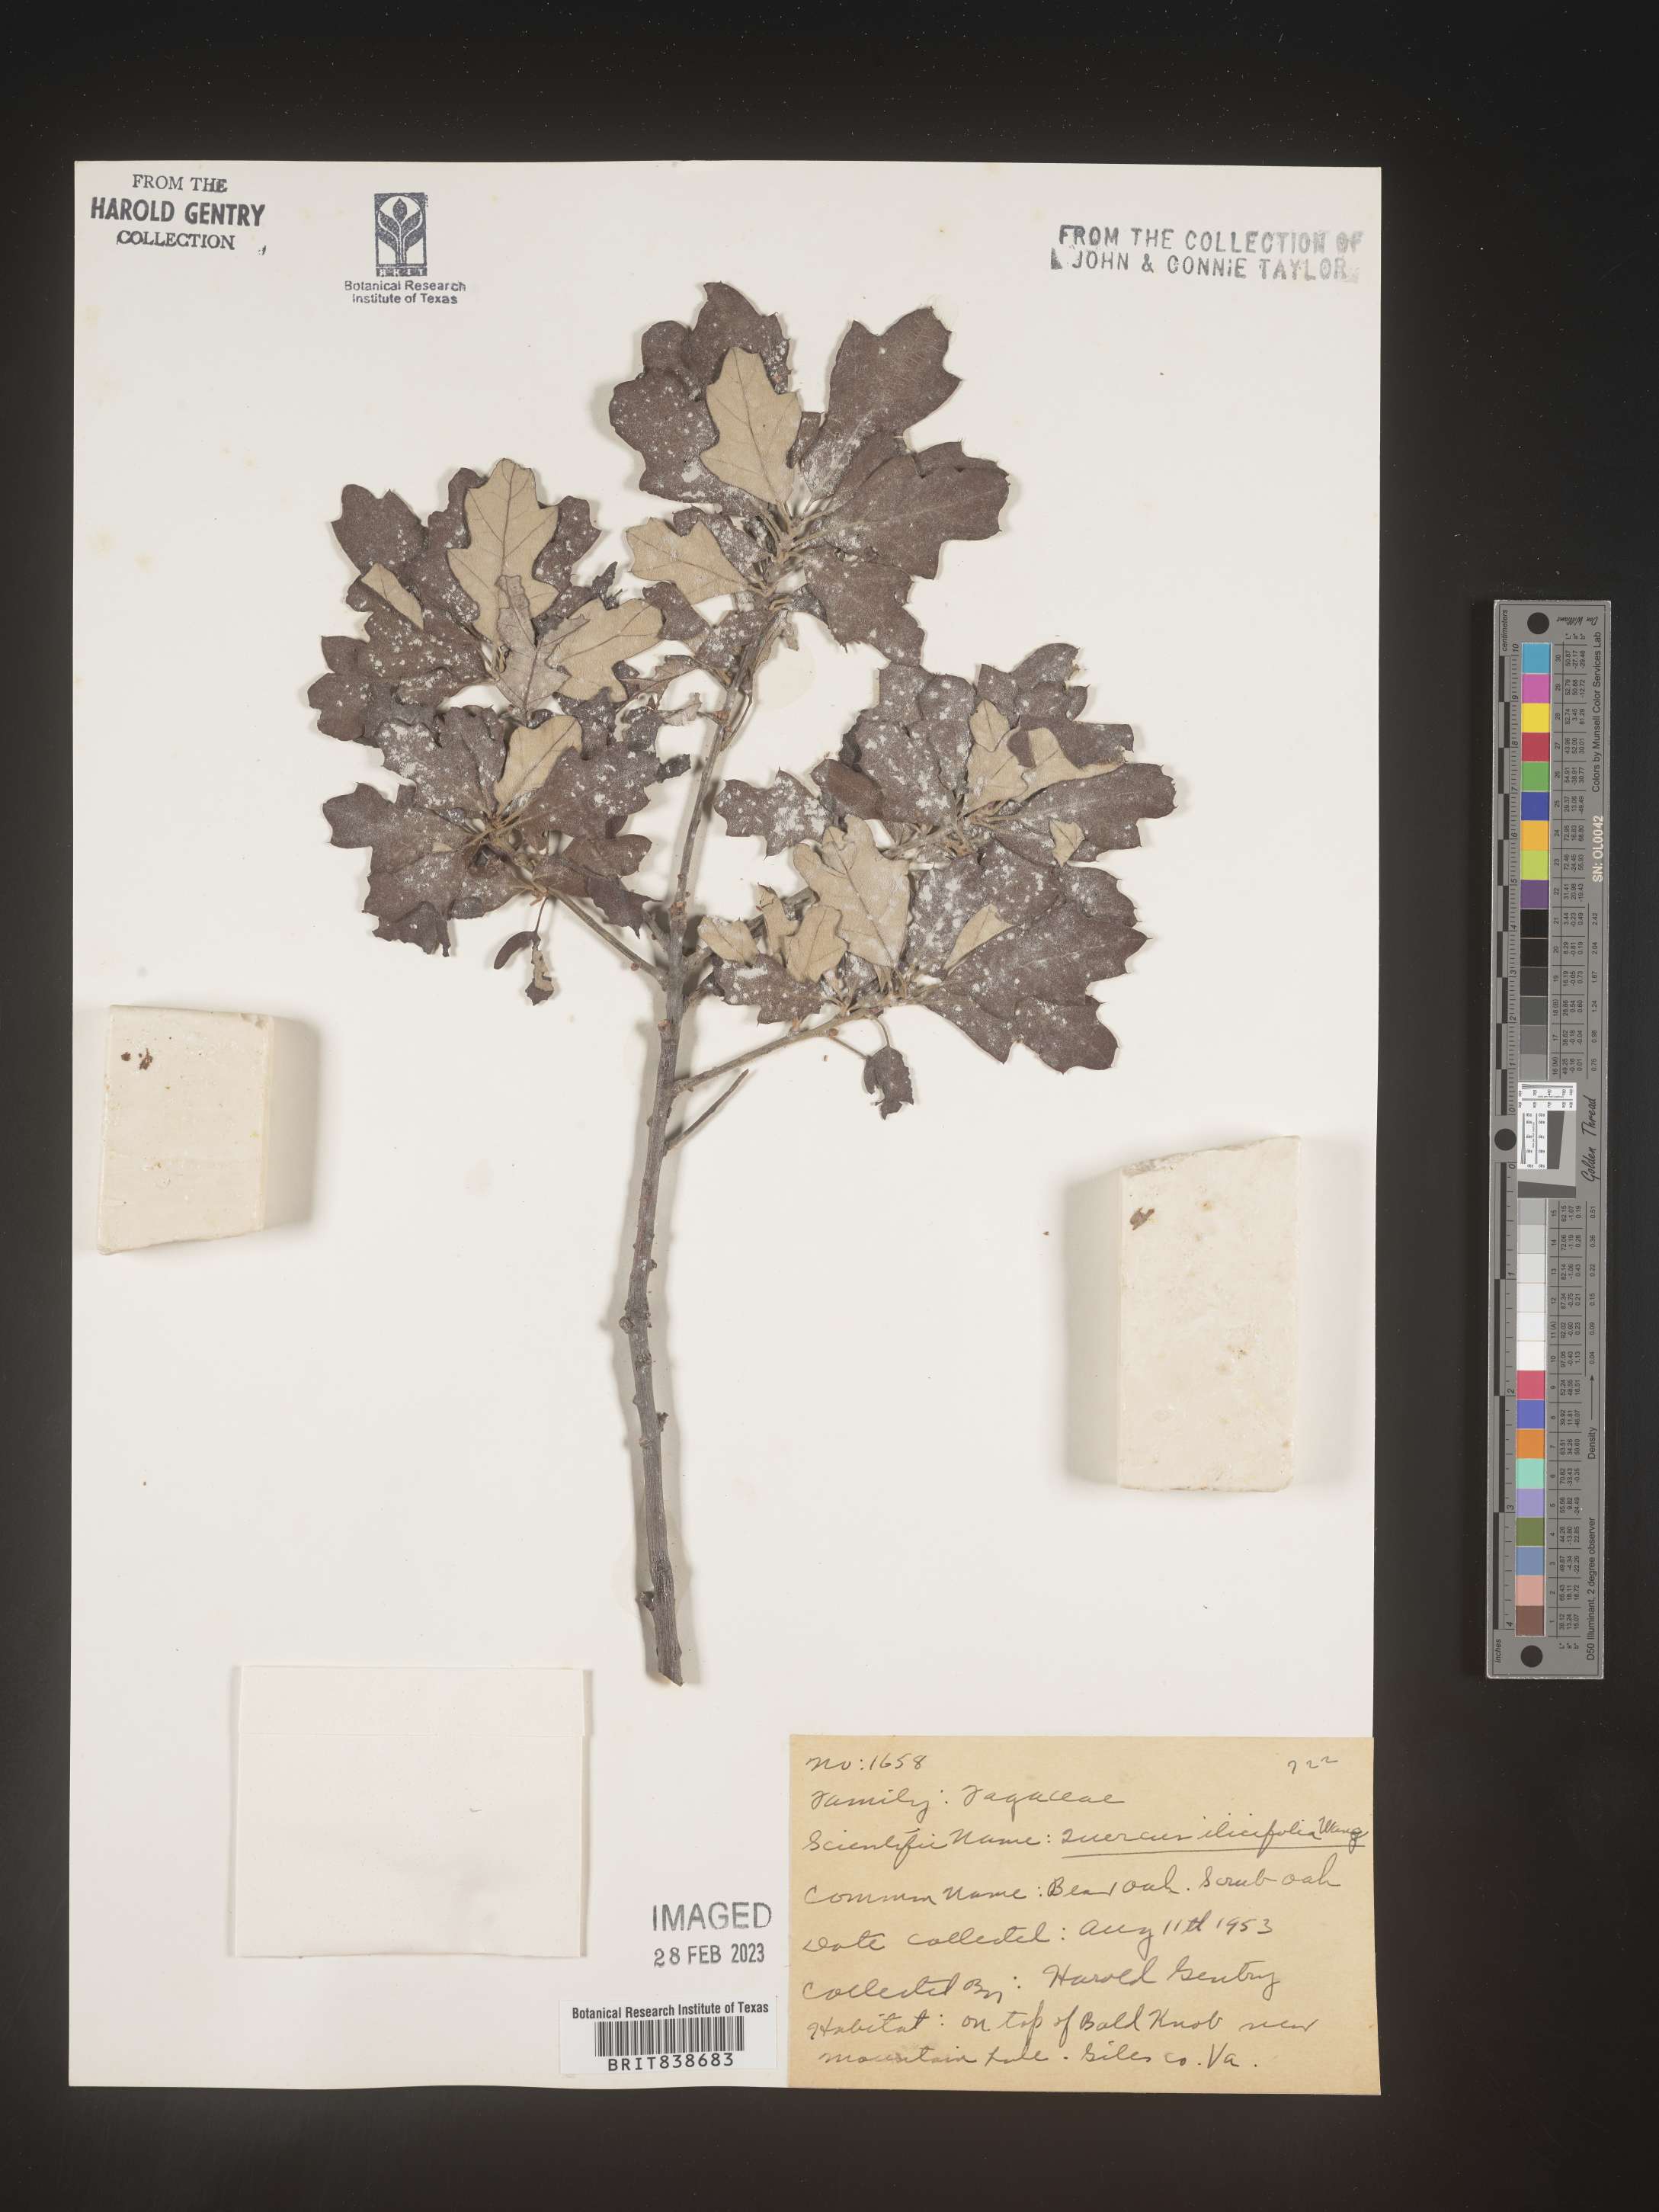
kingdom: Plantae
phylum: Tracheophyta
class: Magnoliopsida
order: Fagales
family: Fagaceae
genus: Quercus
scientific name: Quercus ilicifolia
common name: Bear oak
